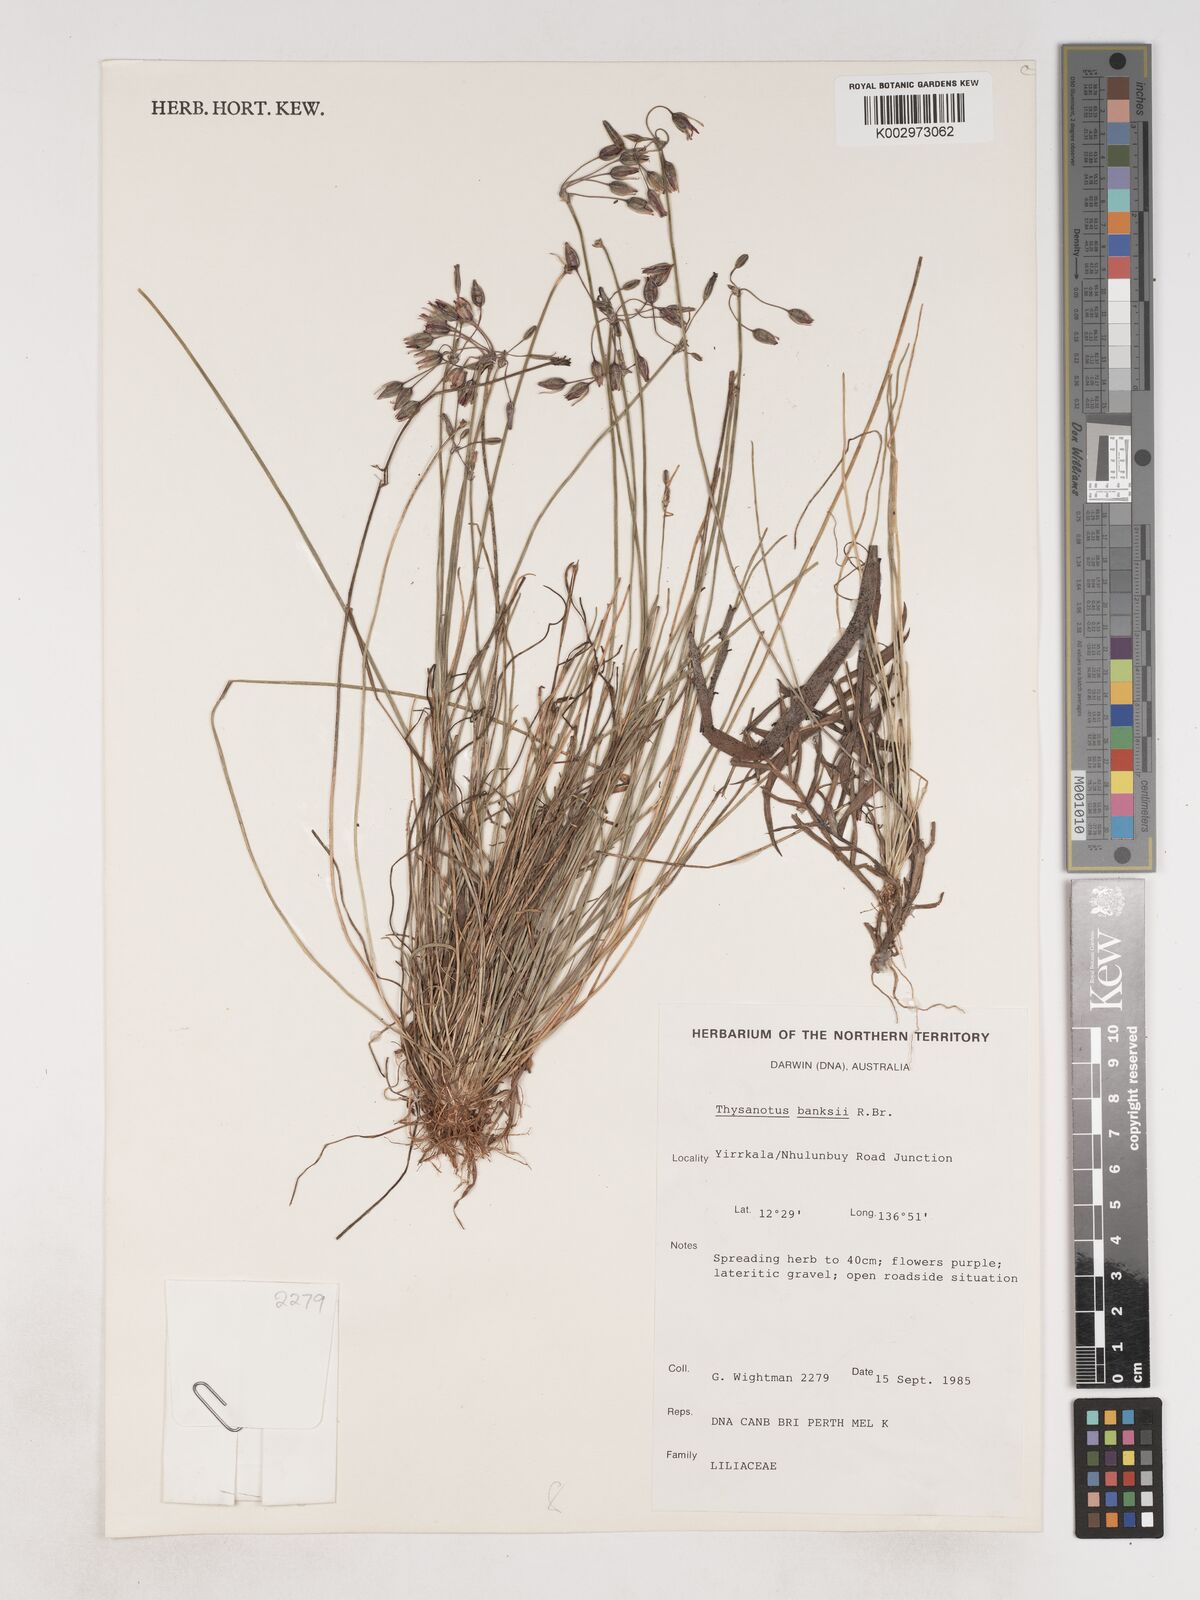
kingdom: Plantae
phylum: Tracheophyta
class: Liliopsida
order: Asparagales
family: Asparagaceae
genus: Thysanotus
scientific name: Thysanotus banksii
